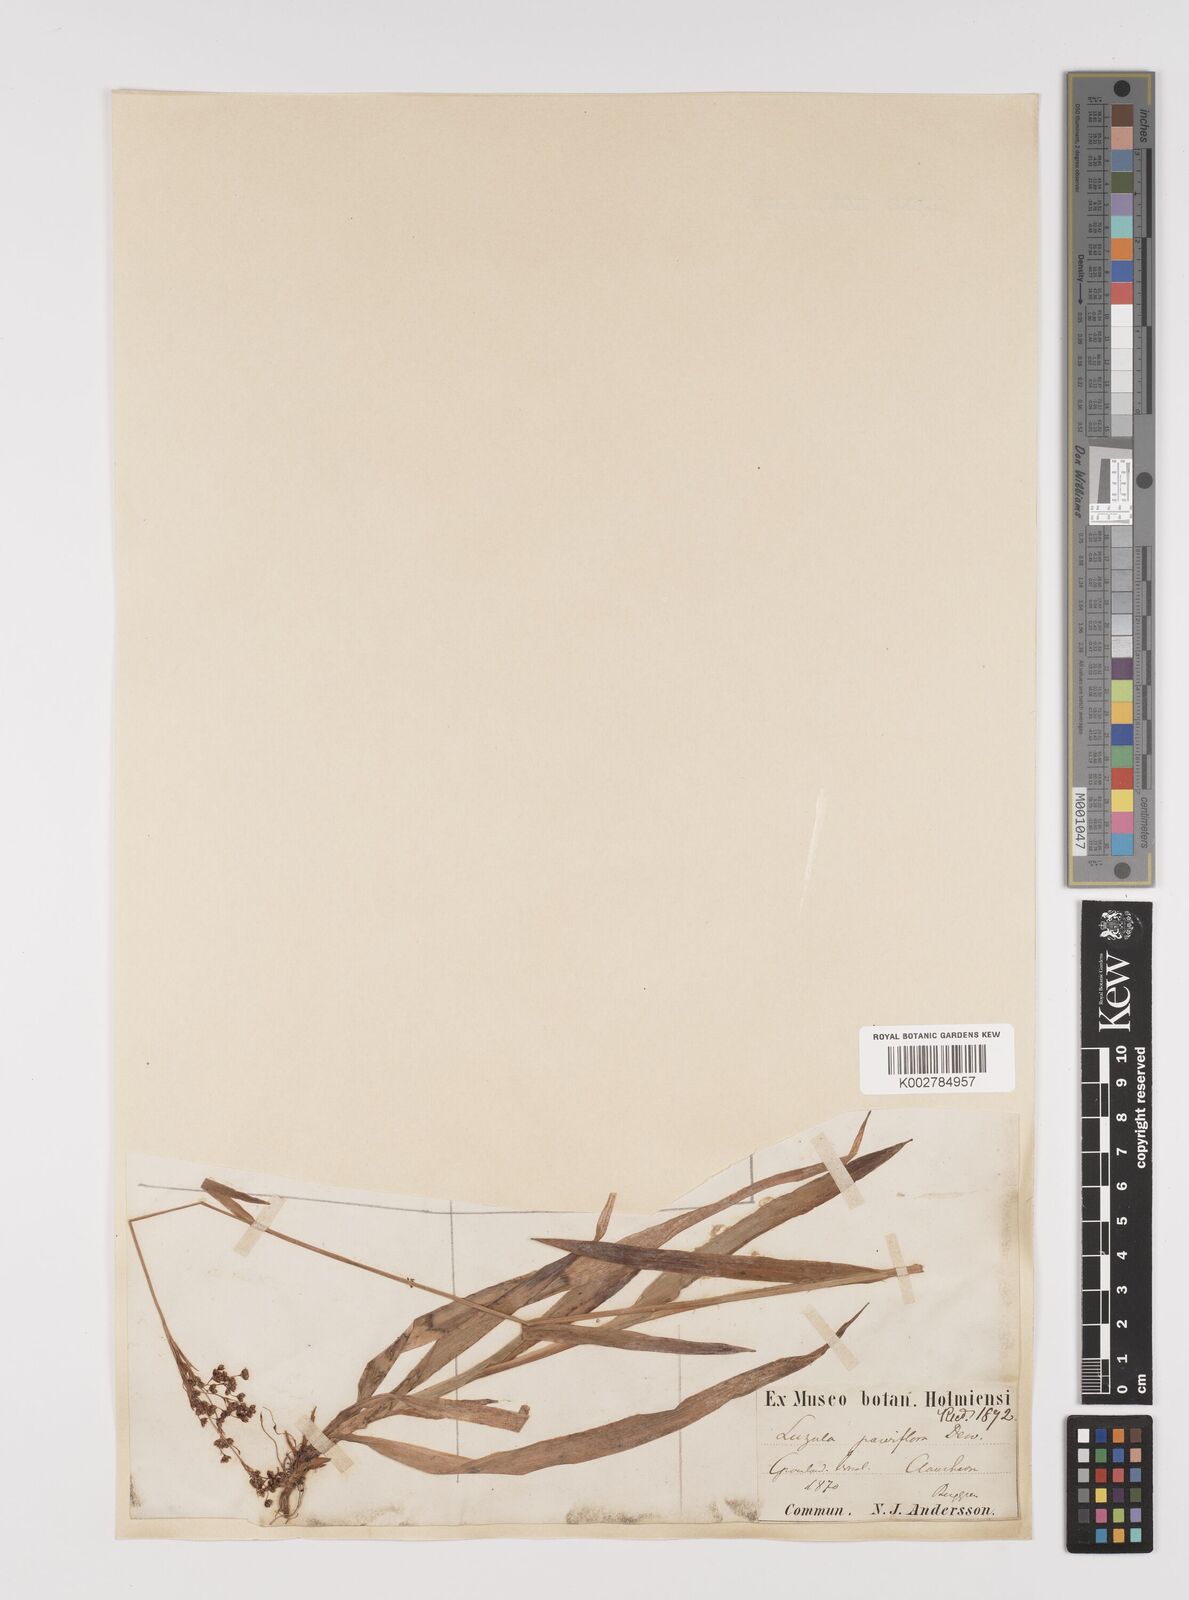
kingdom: Plantae
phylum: Tracheophyta
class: Liliopsida
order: Poales
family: Juncaceae
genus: Luzula
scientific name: Luzula parviflora
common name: Millet woodrush
